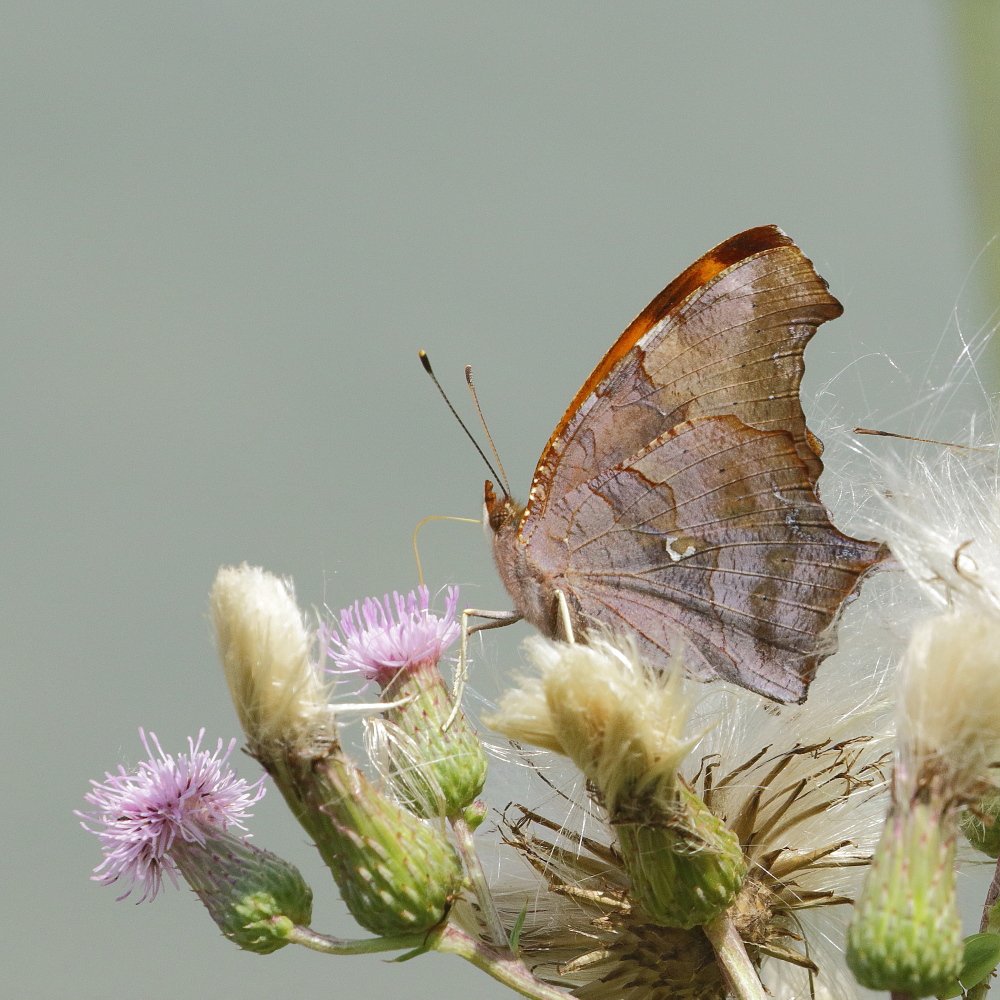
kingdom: Animalia
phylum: Arthropoda
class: Insecta
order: Lepidoptera
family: Nymphalidae
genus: Polygonia
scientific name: Polygonia interrogationis
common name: Question Mark
